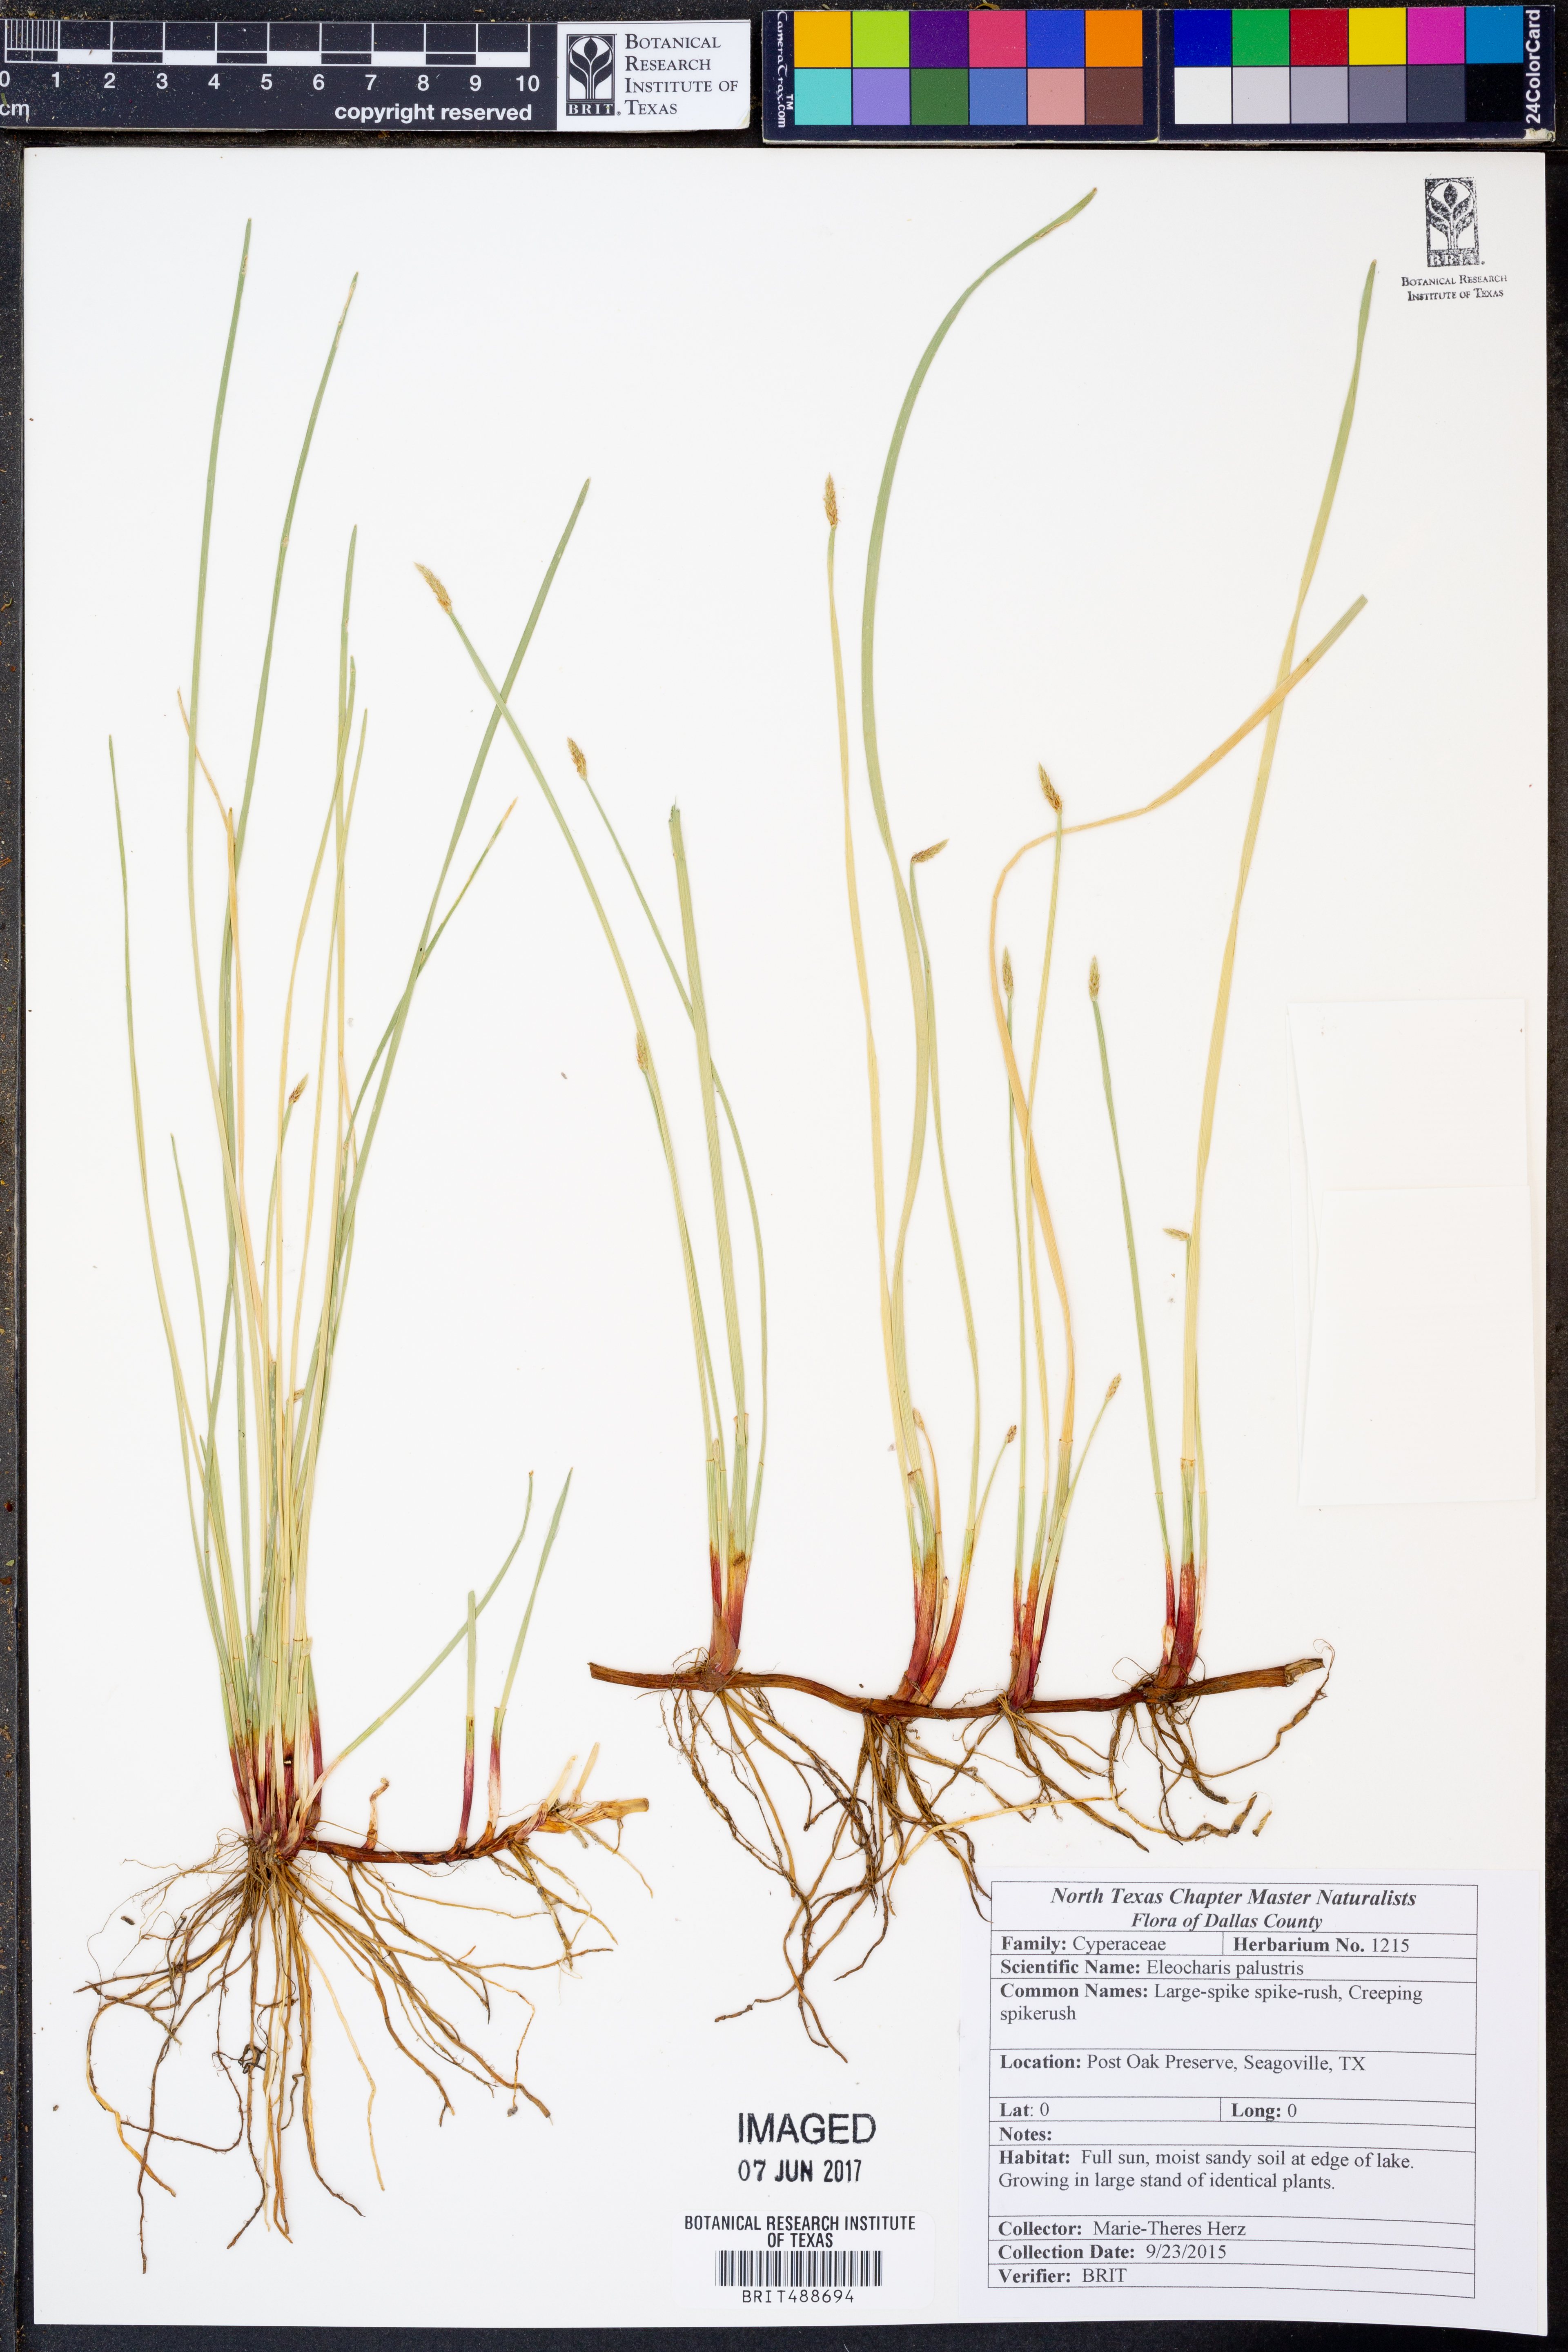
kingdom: Plantae
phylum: Tracheophyta
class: Liliopsida
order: Poales
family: Cyperaceae
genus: Eleocharis
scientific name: Eleocharis palustris
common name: Common spike-rush
